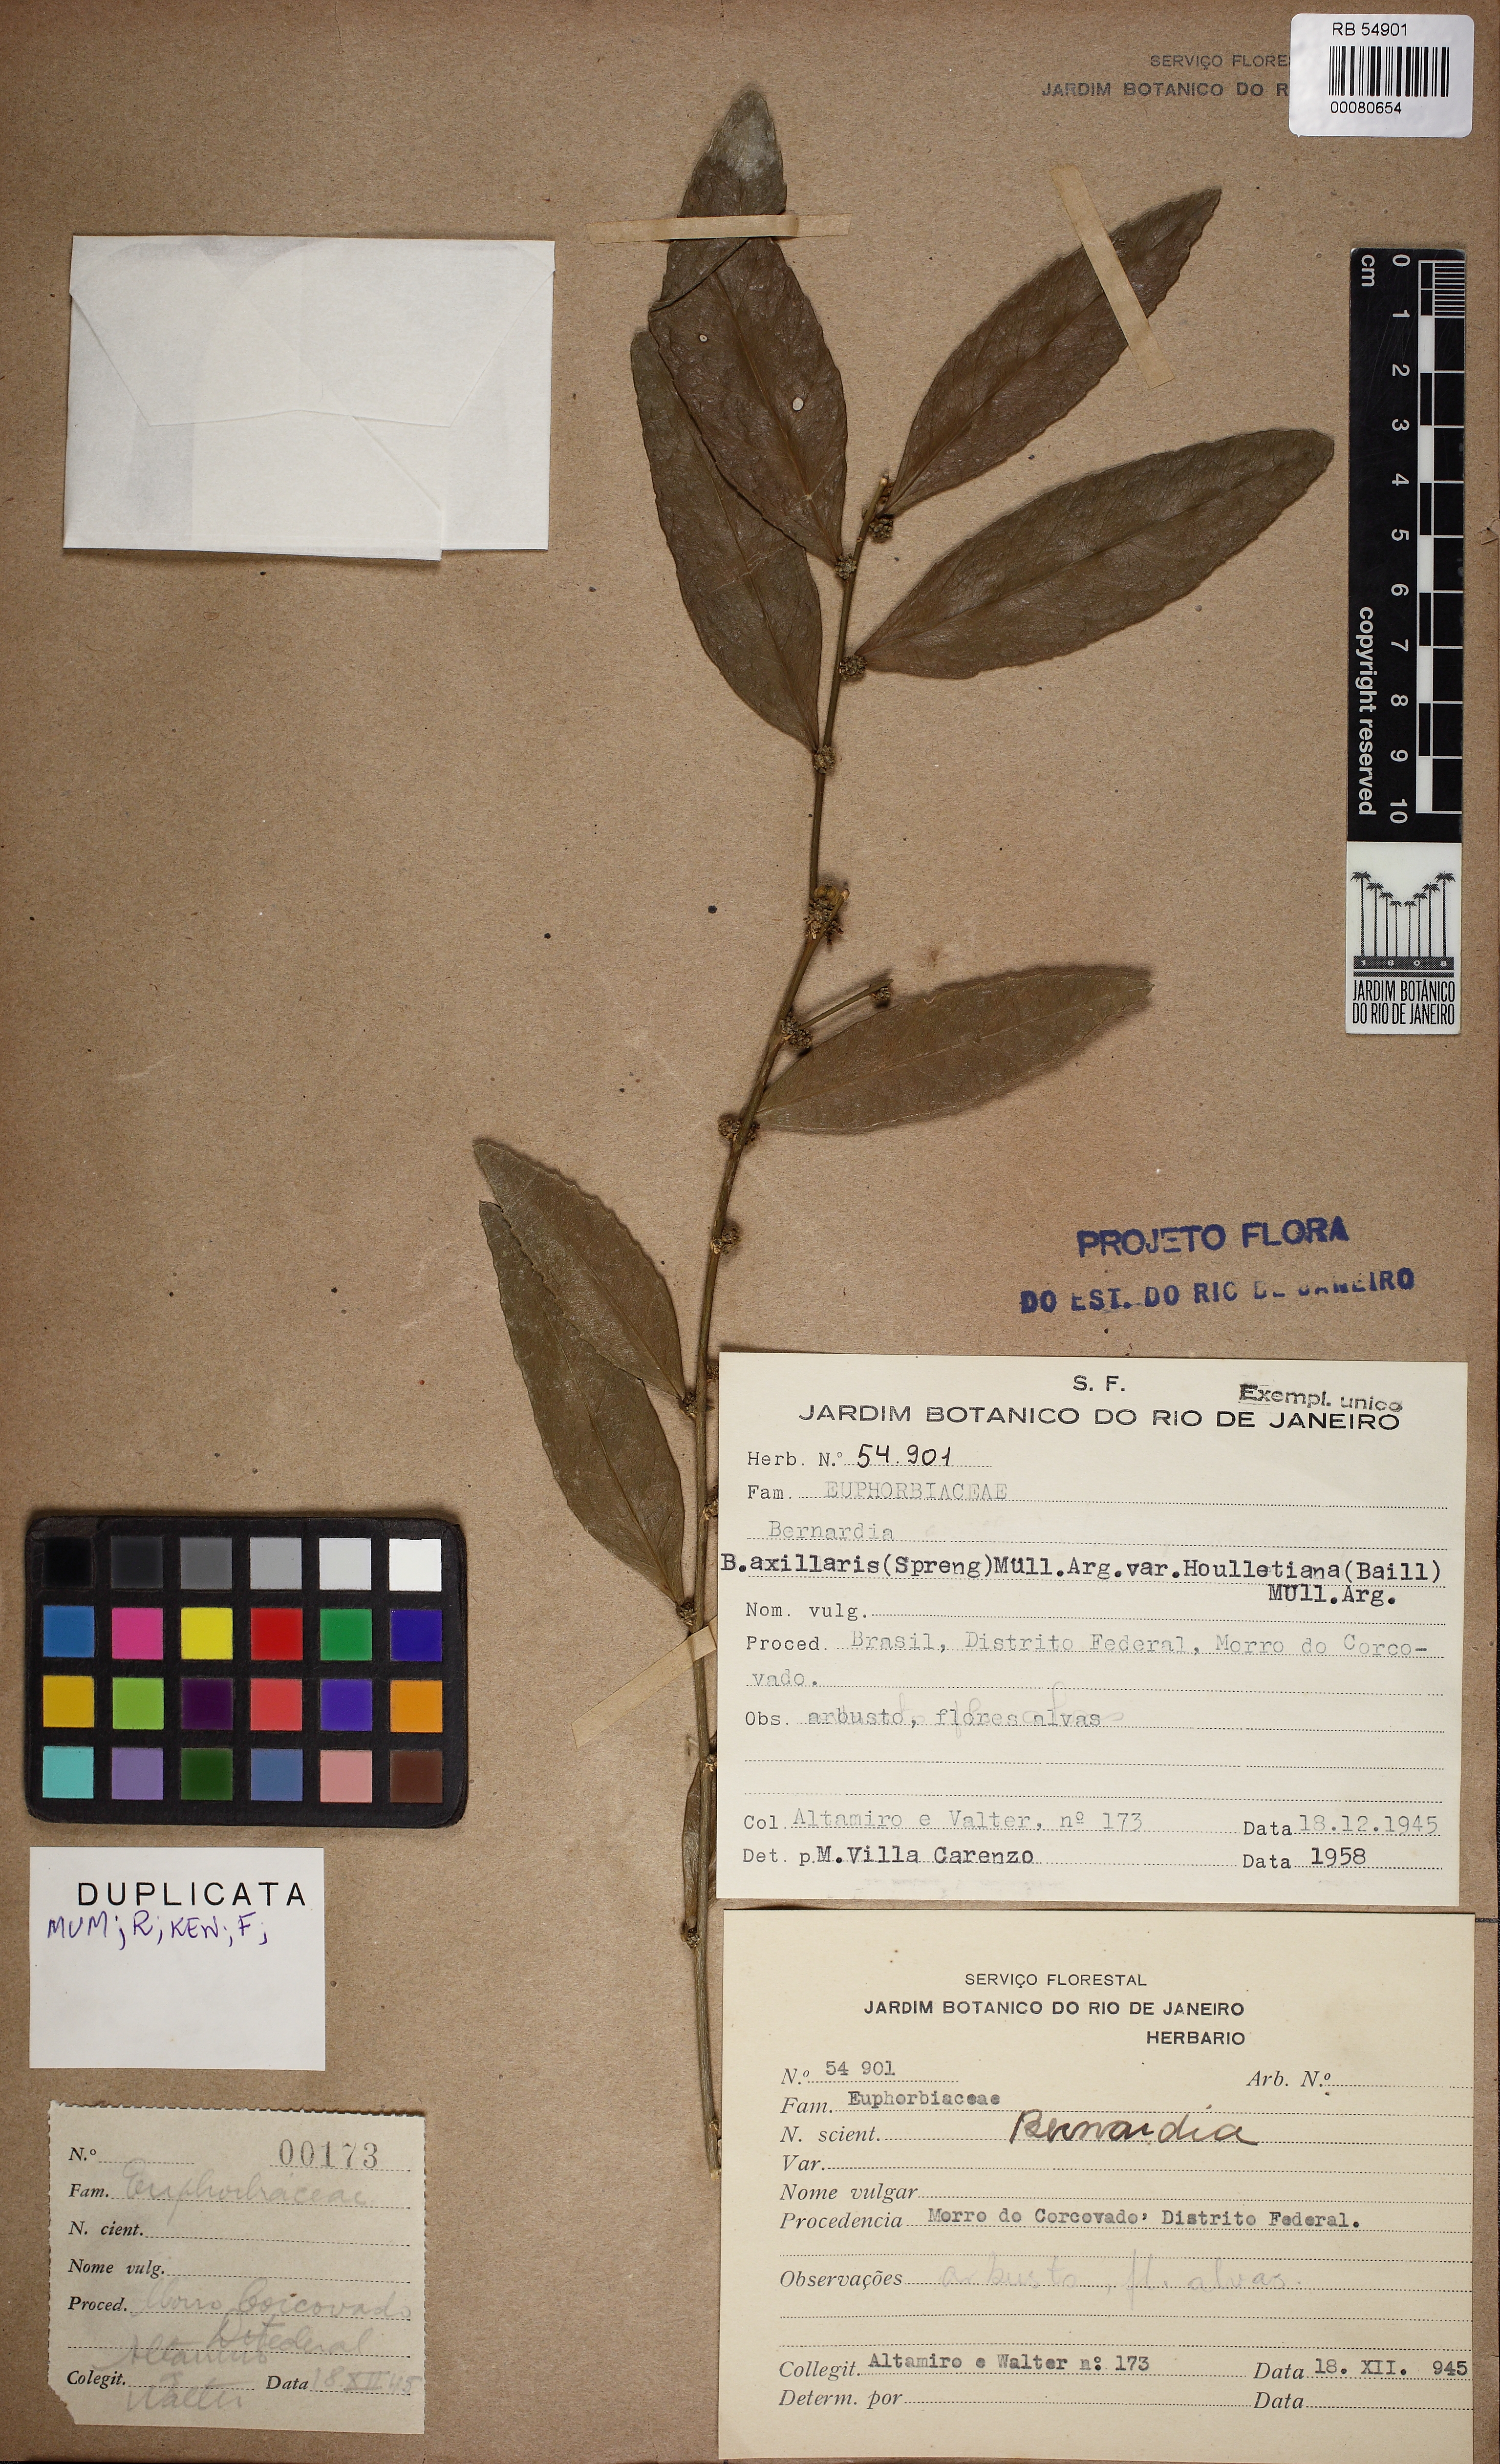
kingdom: Plantae
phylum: Tracheophyta
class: Magnoliopsida
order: Malpighiales
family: Euphorbiaceae
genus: Bernardia
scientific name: Bernardia axillaris
